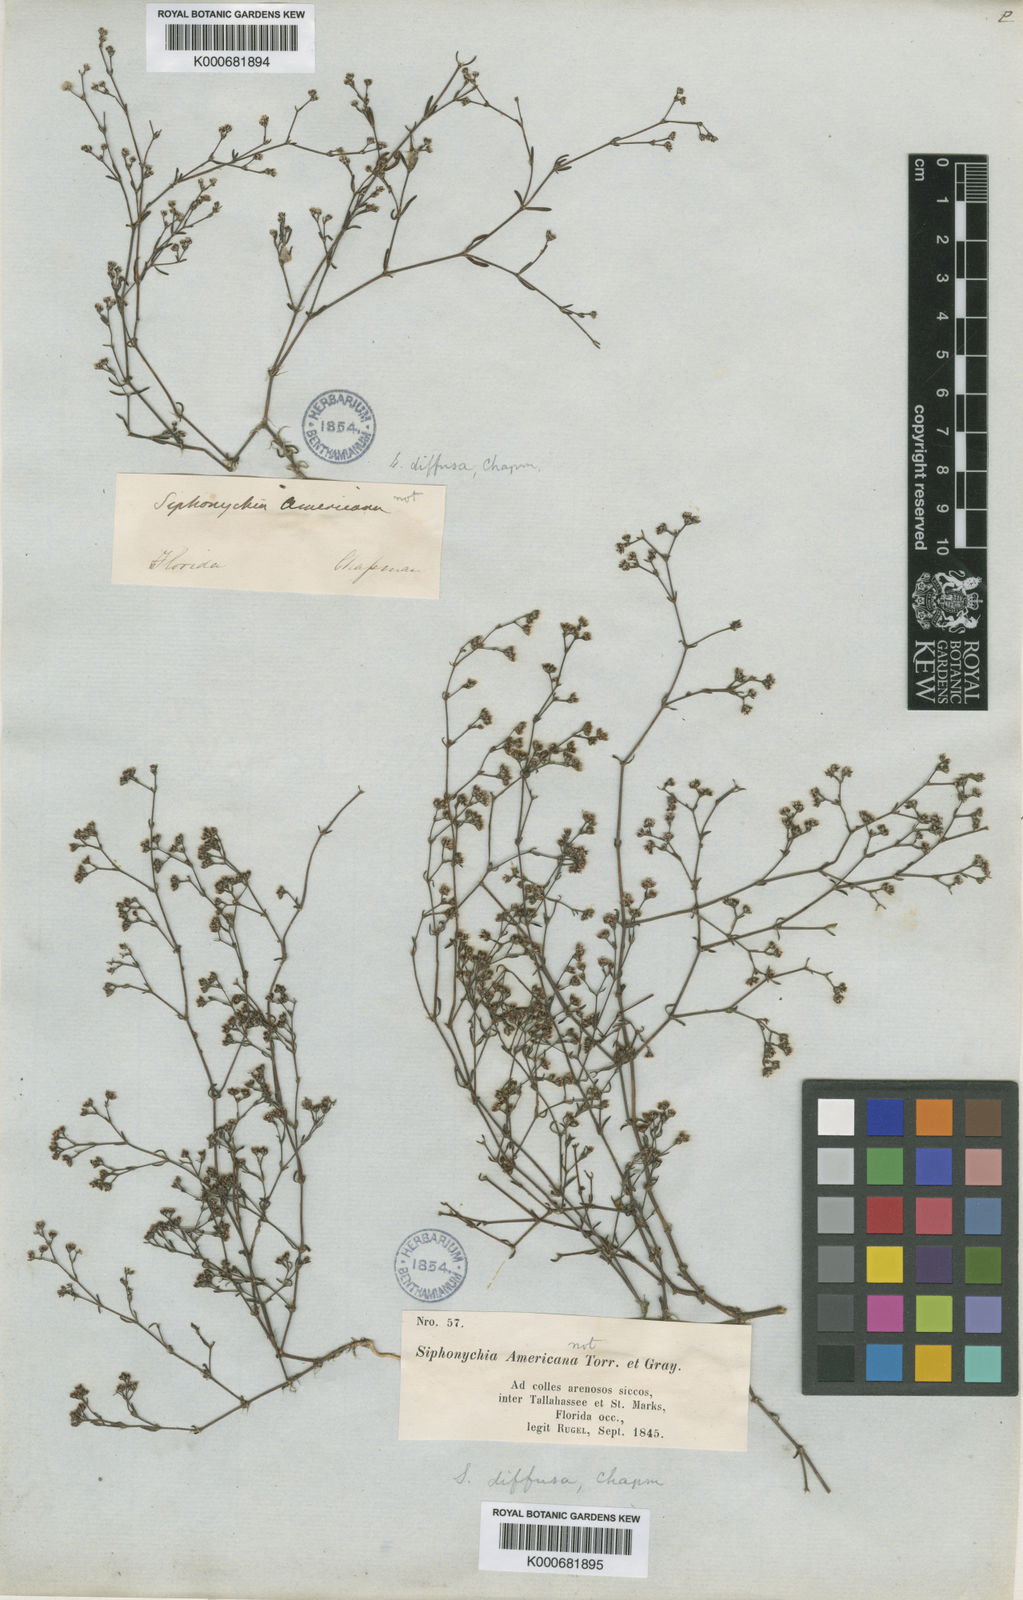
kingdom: Plantae
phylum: Tracheophyta
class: Magnoliopsida
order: Caryophyllales
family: Caryophyllaceae
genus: Paronychia
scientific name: Paronychia patula
